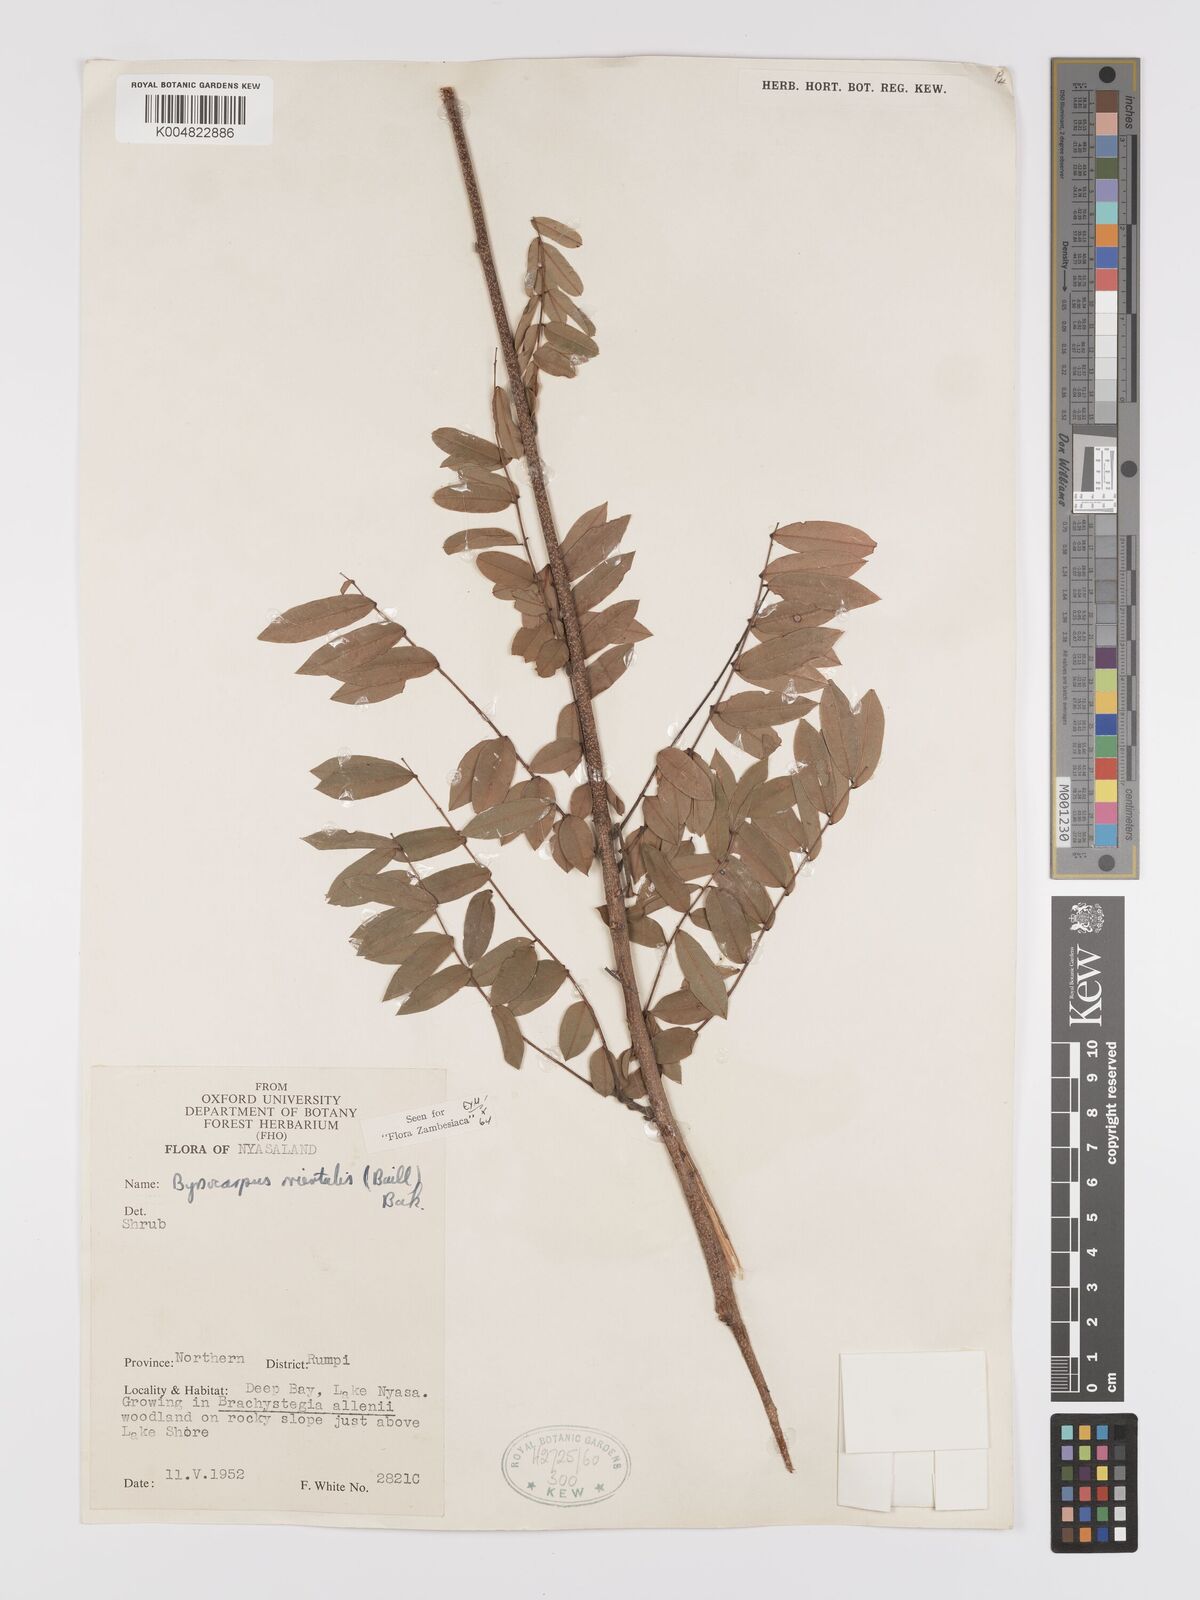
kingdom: Plantae
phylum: Tracheophyta
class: Magnoliopsida
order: Oxalidales
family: Connaraceae
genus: Rourea
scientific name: Rourea orientalis
